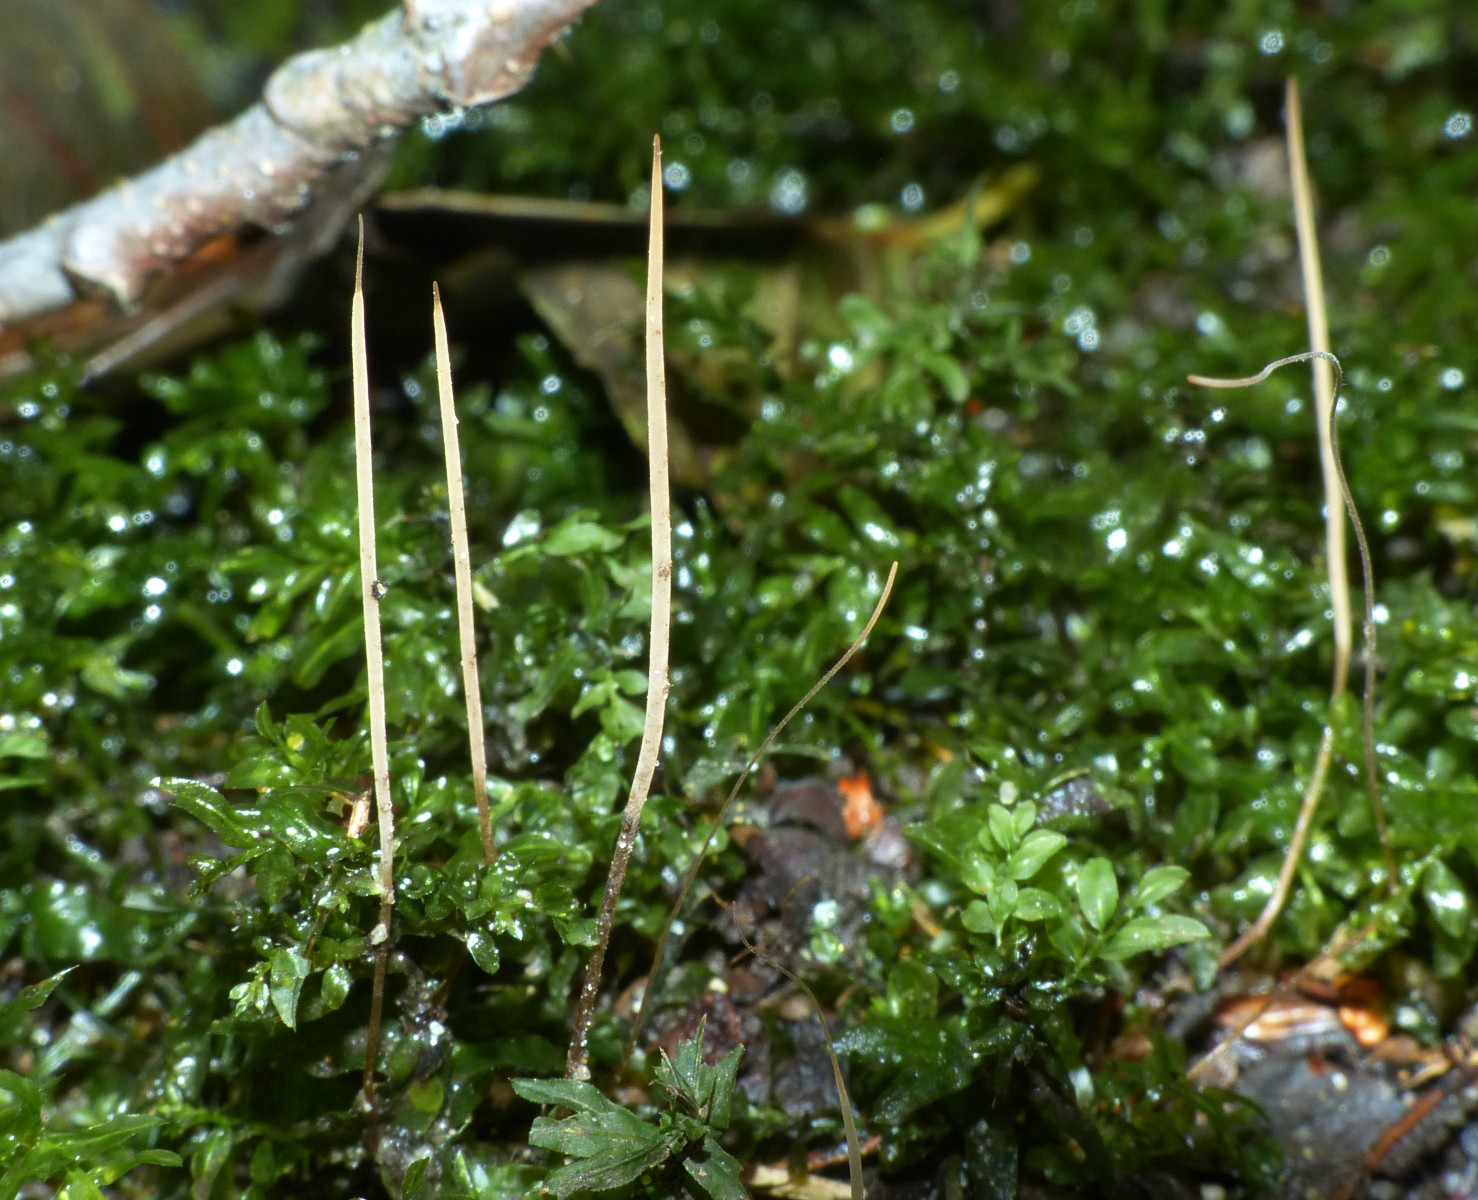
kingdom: Fungi
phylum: Basidiomycota
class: Agaricomycetes
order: Agaricales
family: Typhulaceae
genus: Typhula
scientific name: Typhula
